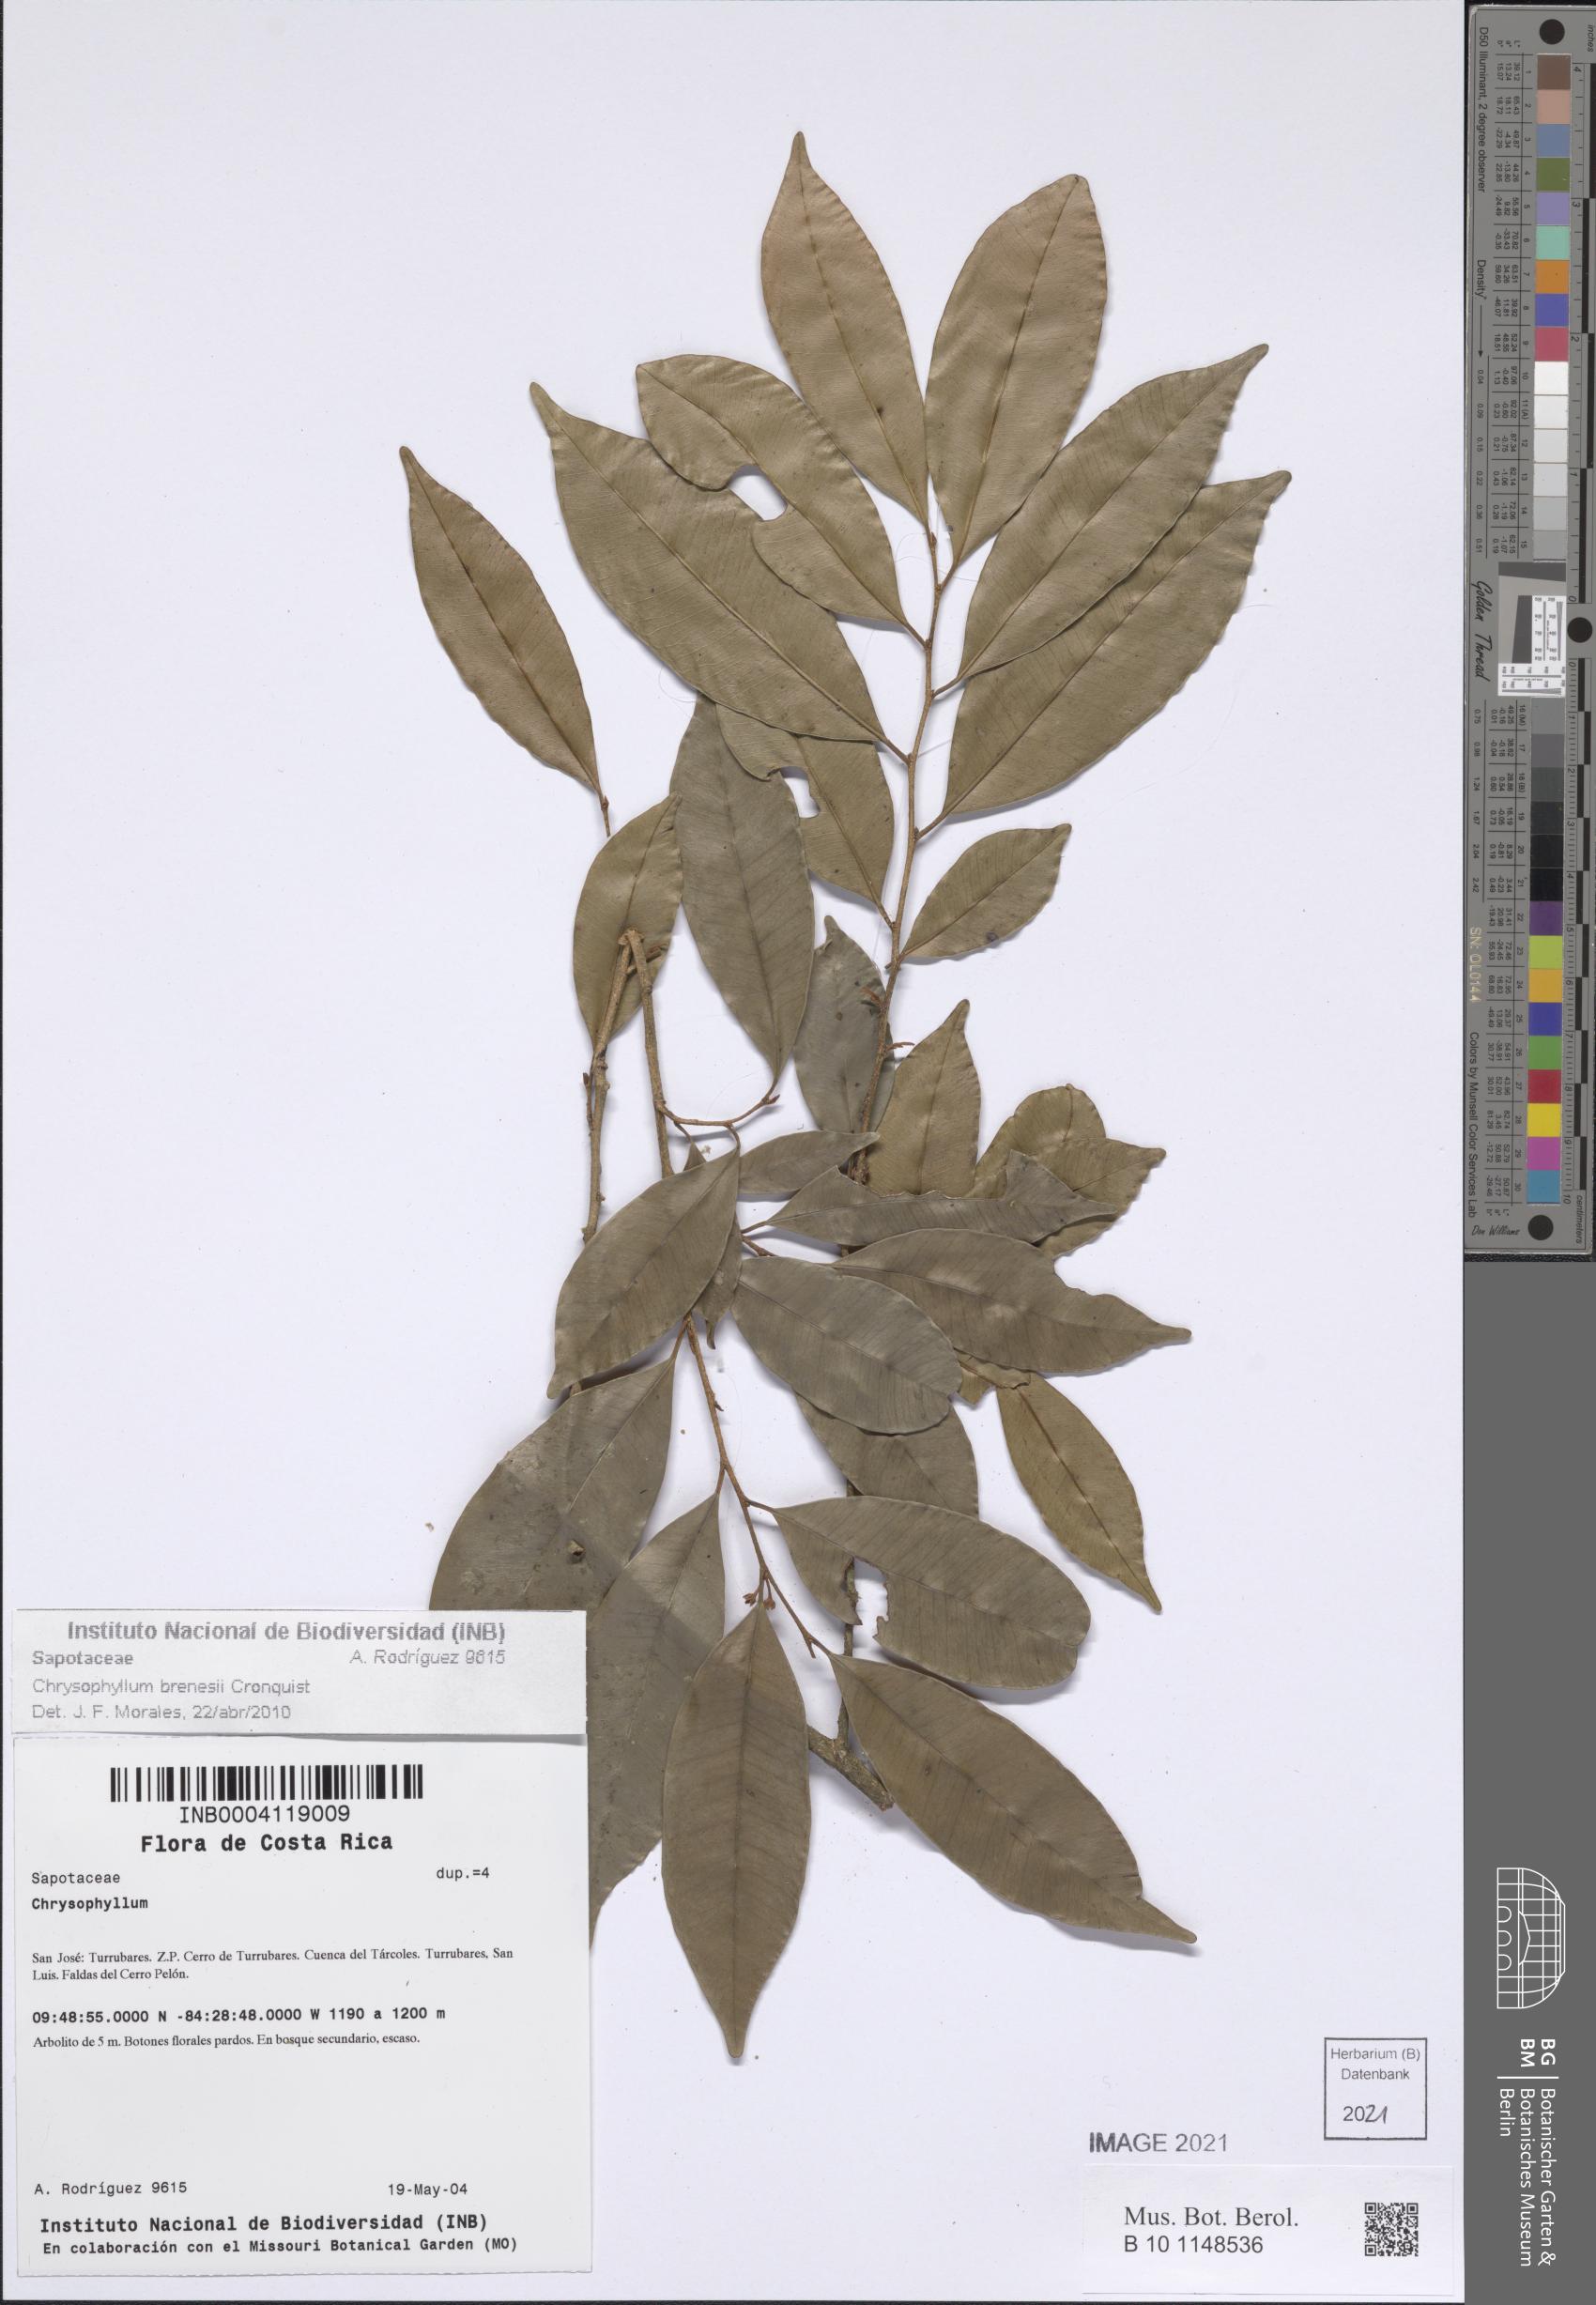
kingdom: Plantae
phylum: Tracheophyta
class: Magnoliopsida
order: Ericales
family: Sapotaceae
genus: Chrysophyllum
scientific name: Chrysophyllum brenesii
